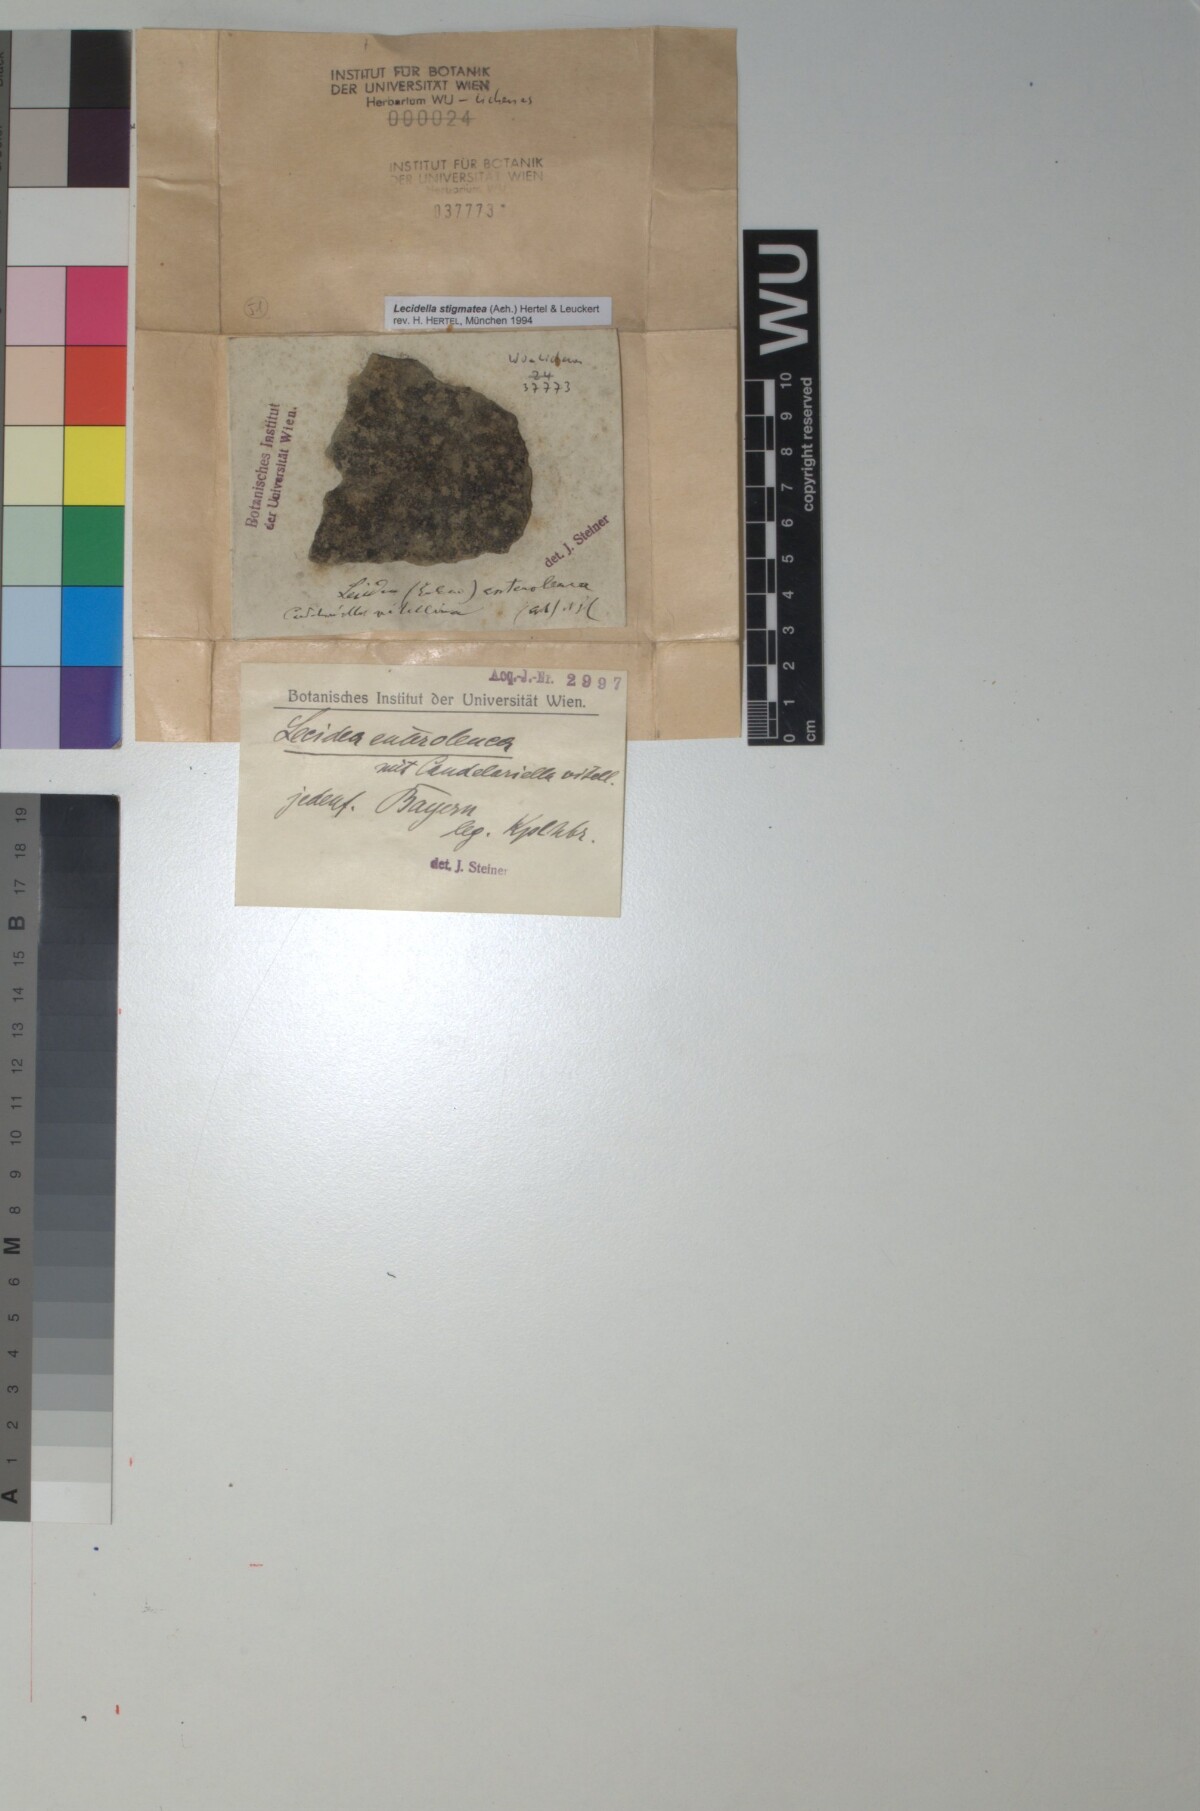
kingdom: Fungi
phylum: Ascomycota
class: Lecanoromycetes
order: Lecanorales
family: Lecanoraceae
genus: Lecidella
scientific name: Lecidella stigmatea
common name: Limestone disc lichen
